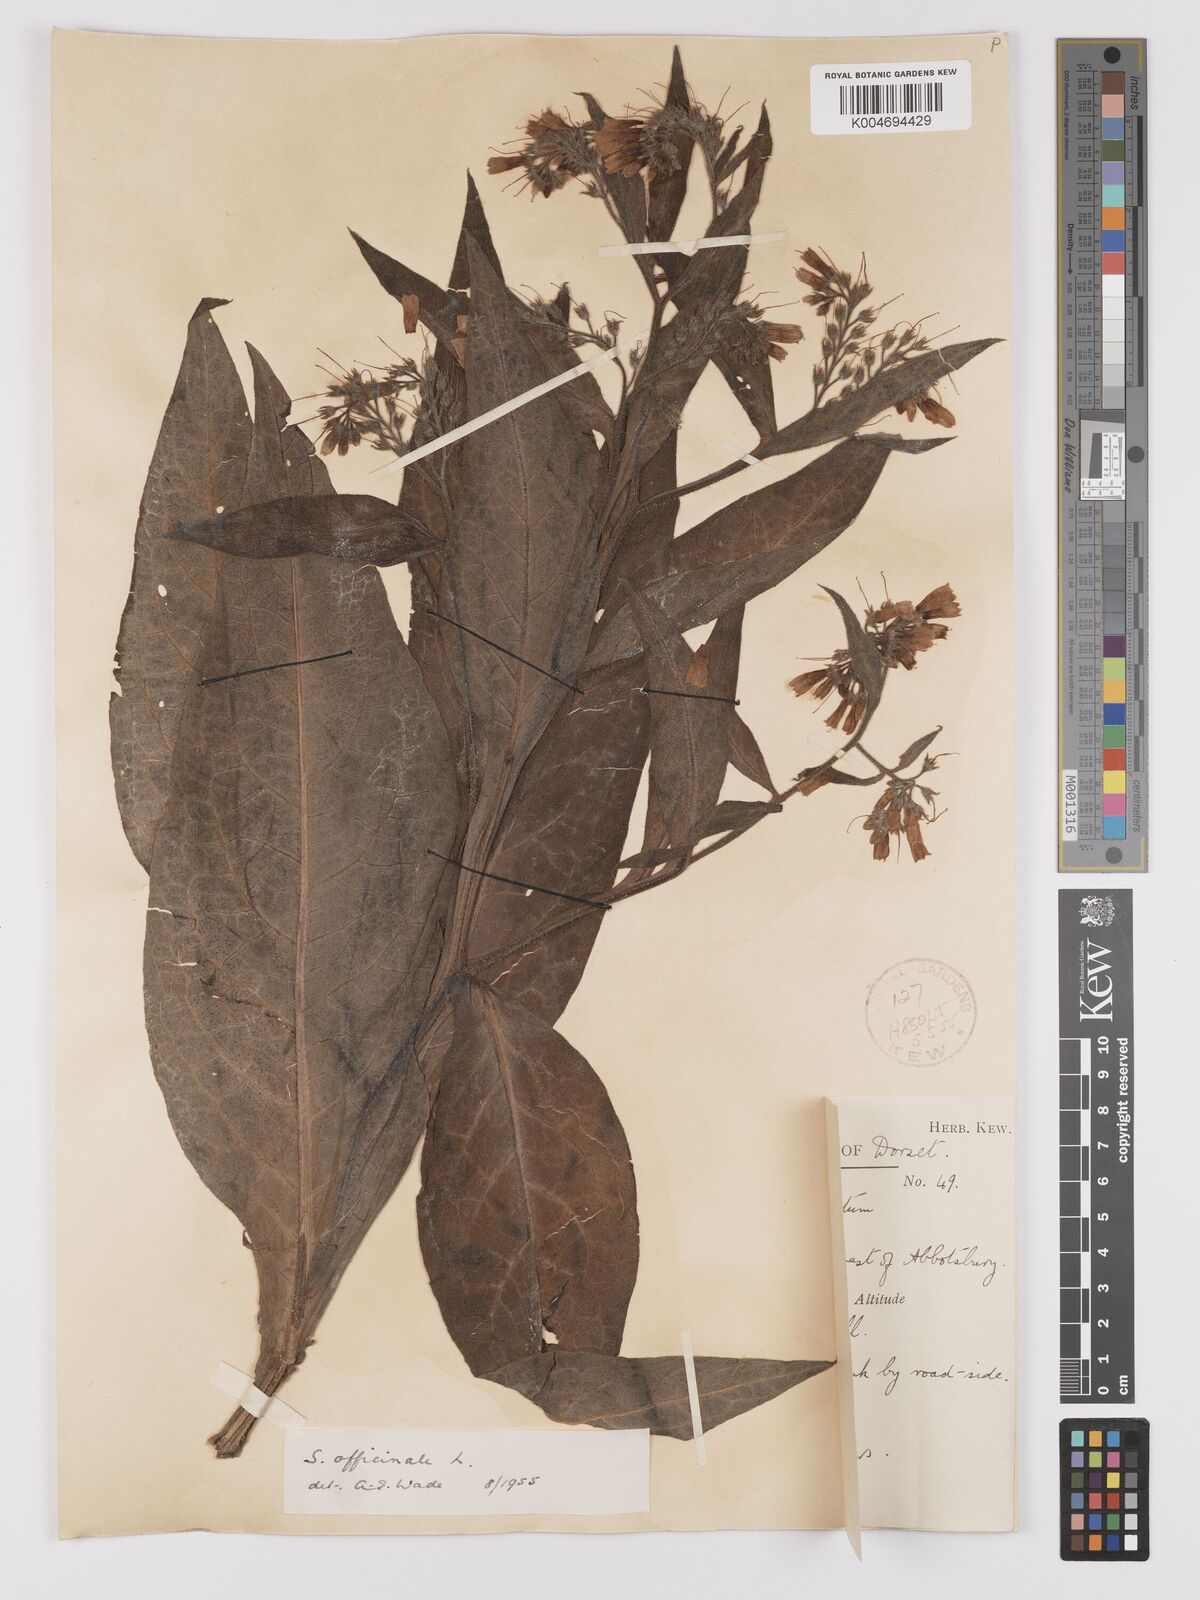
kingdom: Plantae
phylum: Tracheophyta
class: Magnoliopsida
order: Boraginales
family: Boraginaceae
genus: Symphytum
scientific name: Symphytum officinale
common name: Common comfrey
